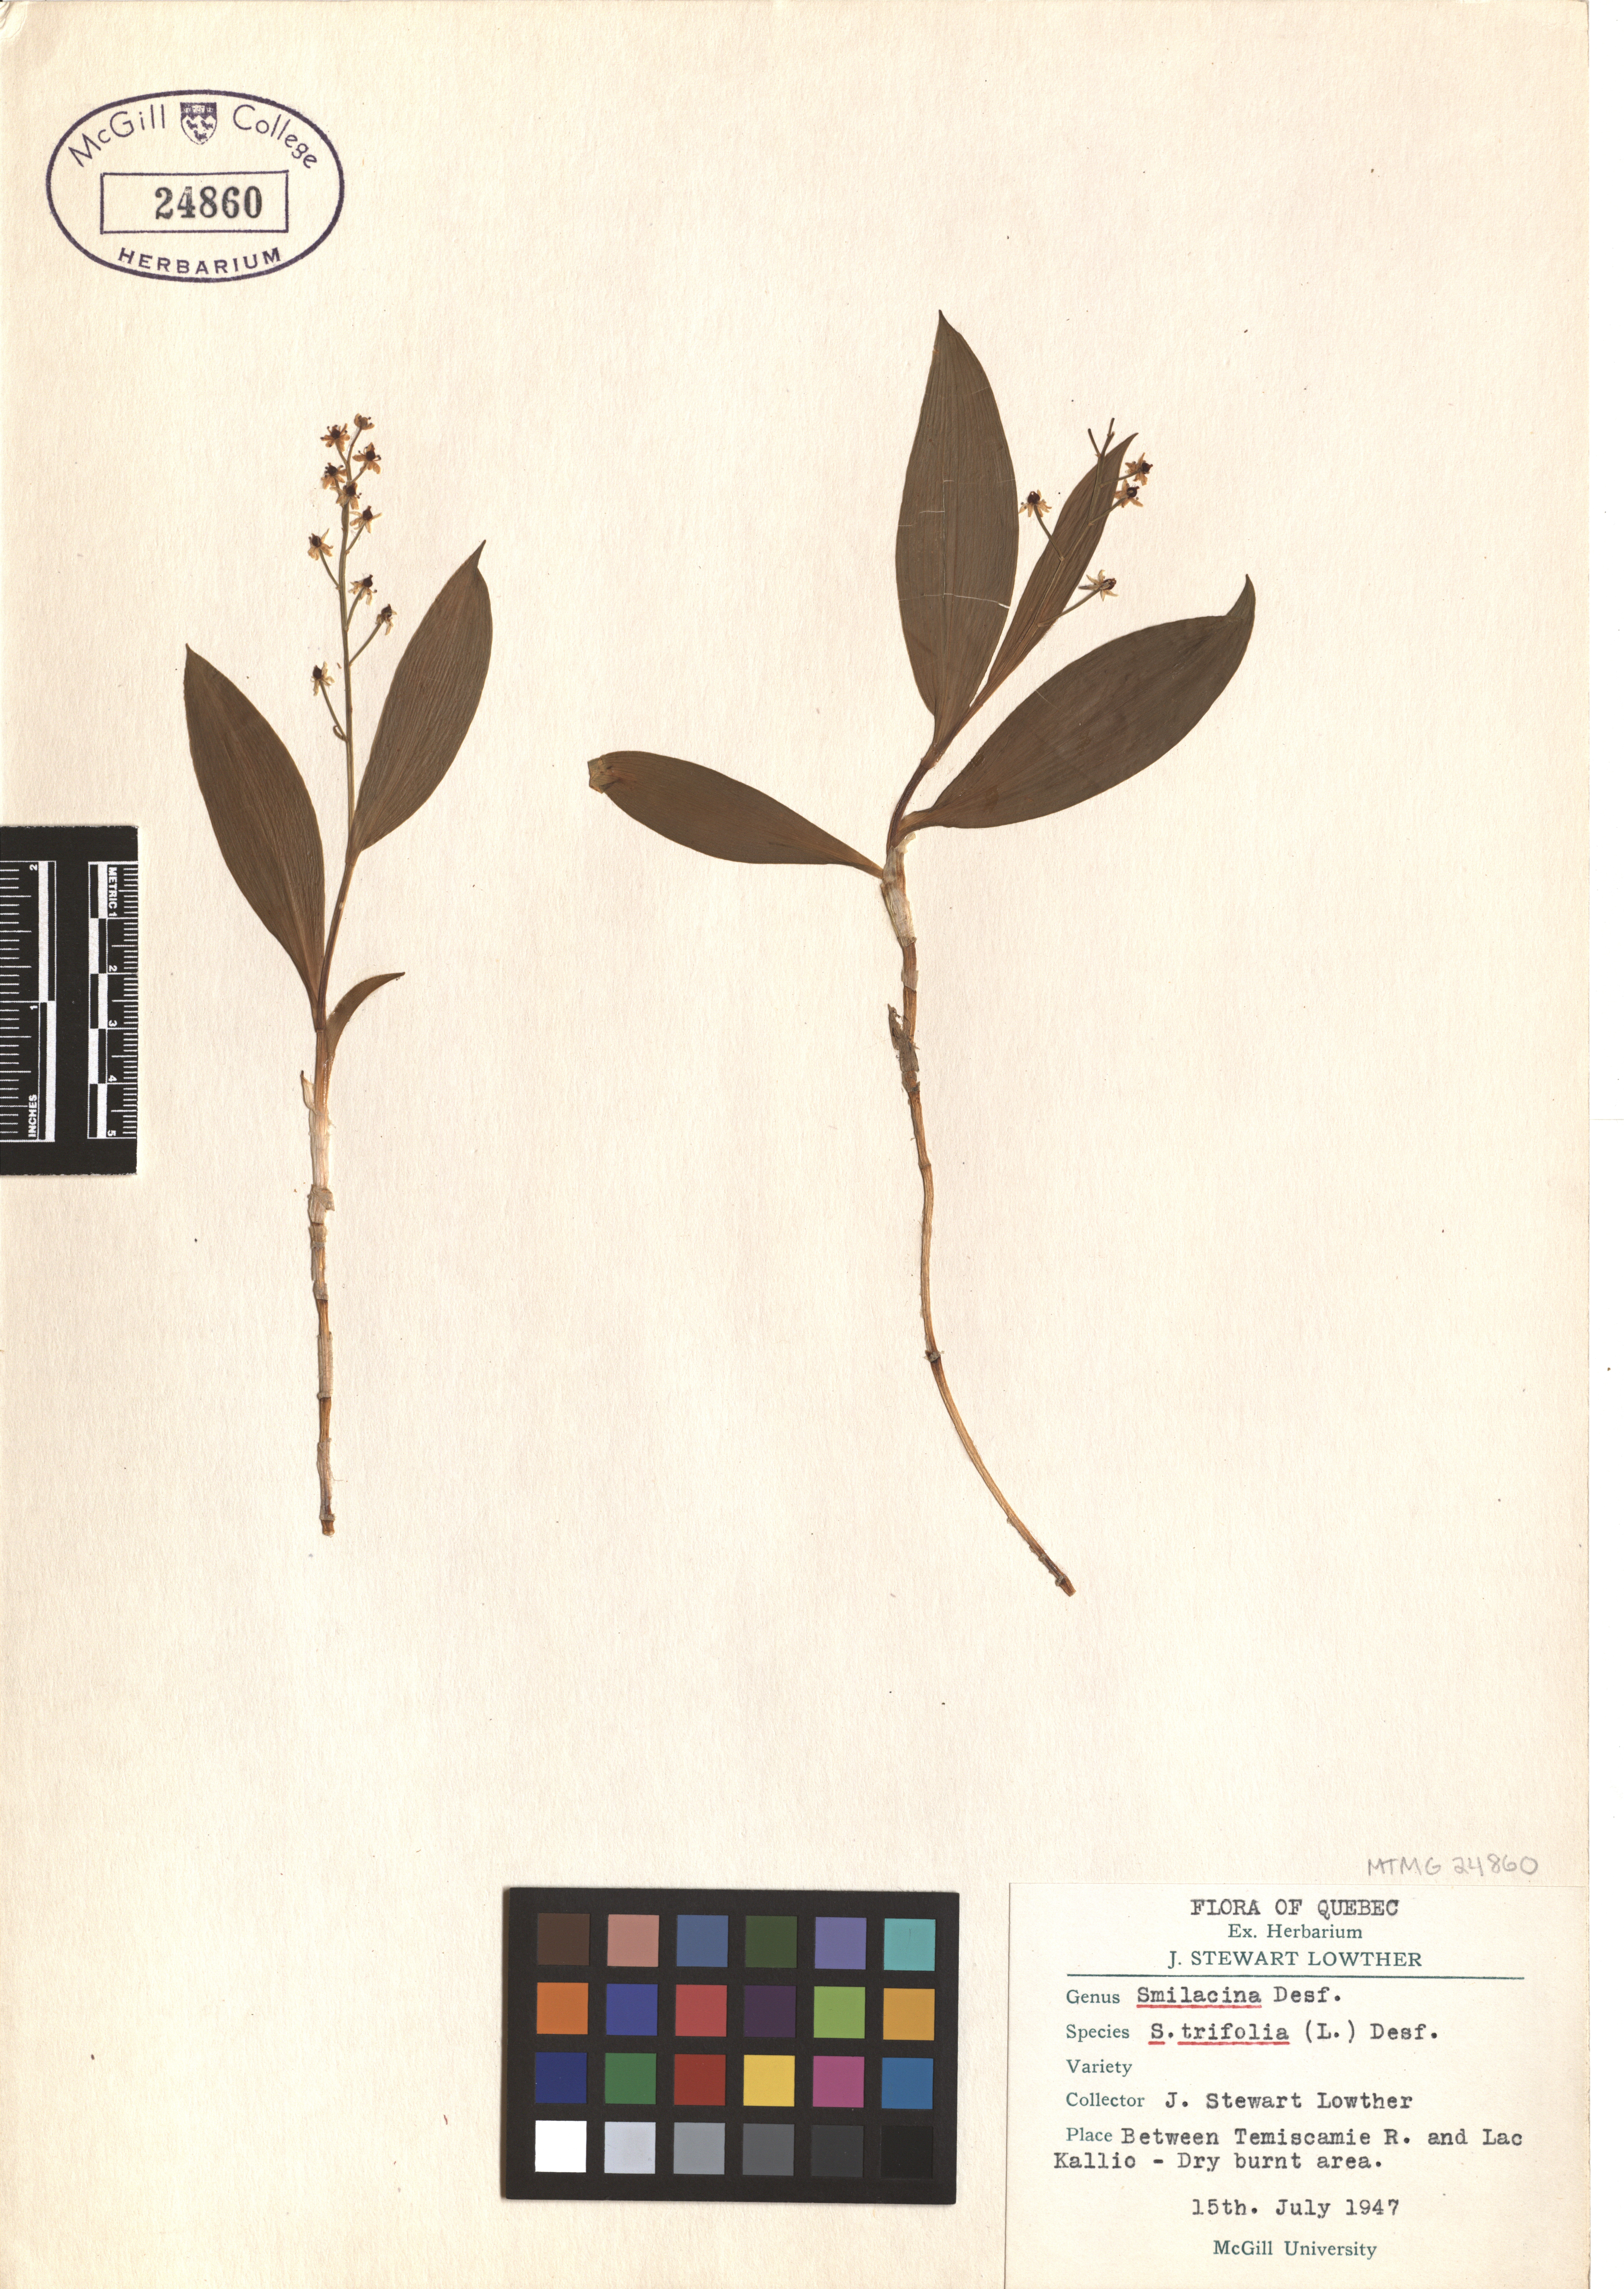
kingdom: Plantae
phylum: Tracheophyta
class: Liliopsida
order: Asparagales
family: Asparagaceae
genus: Maianthemum
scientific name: Maianthemum trifolium
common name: Swamp false solomon's seal
